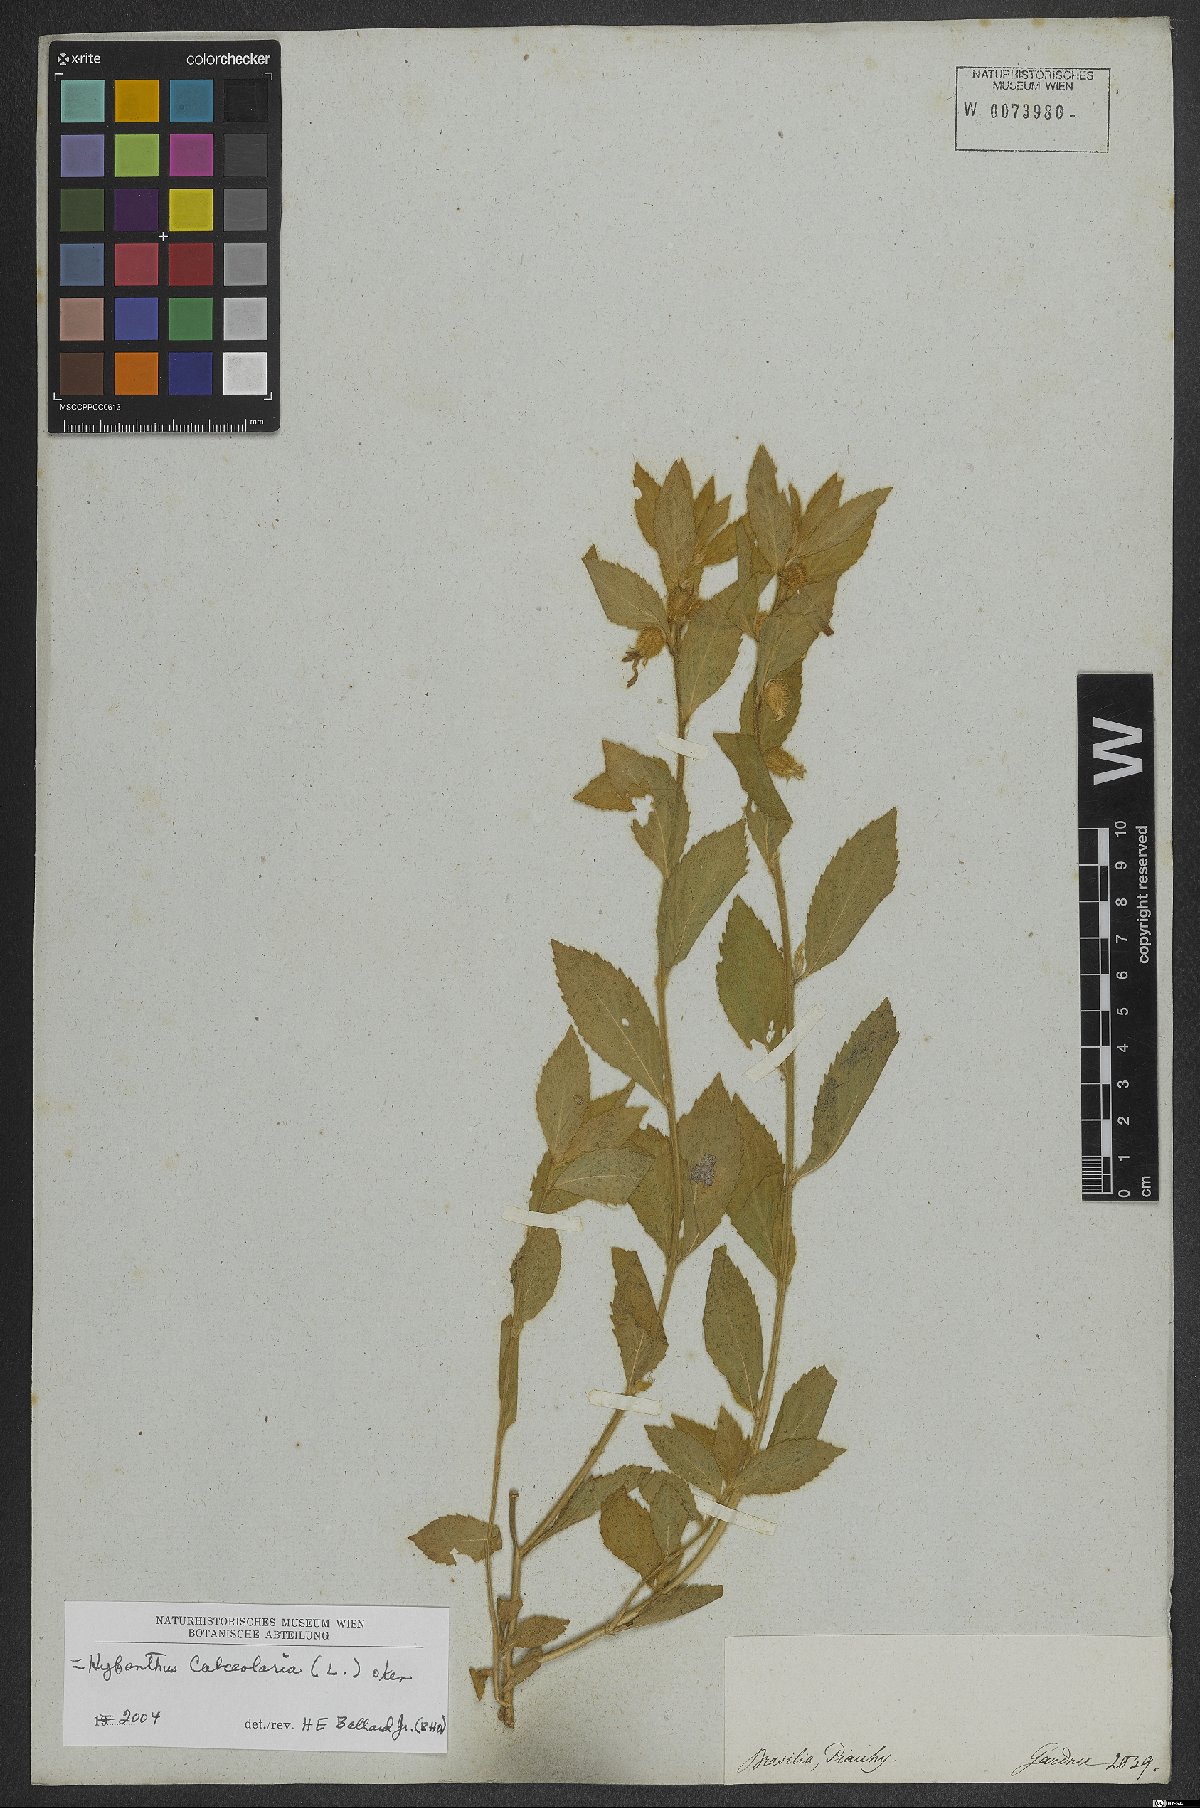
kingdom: Plantae
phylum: Tracheophyta
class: Magnoliopsida
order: Malpighiales
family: Violaceae
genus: Pombalia
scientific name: Pombalia calceolaria
